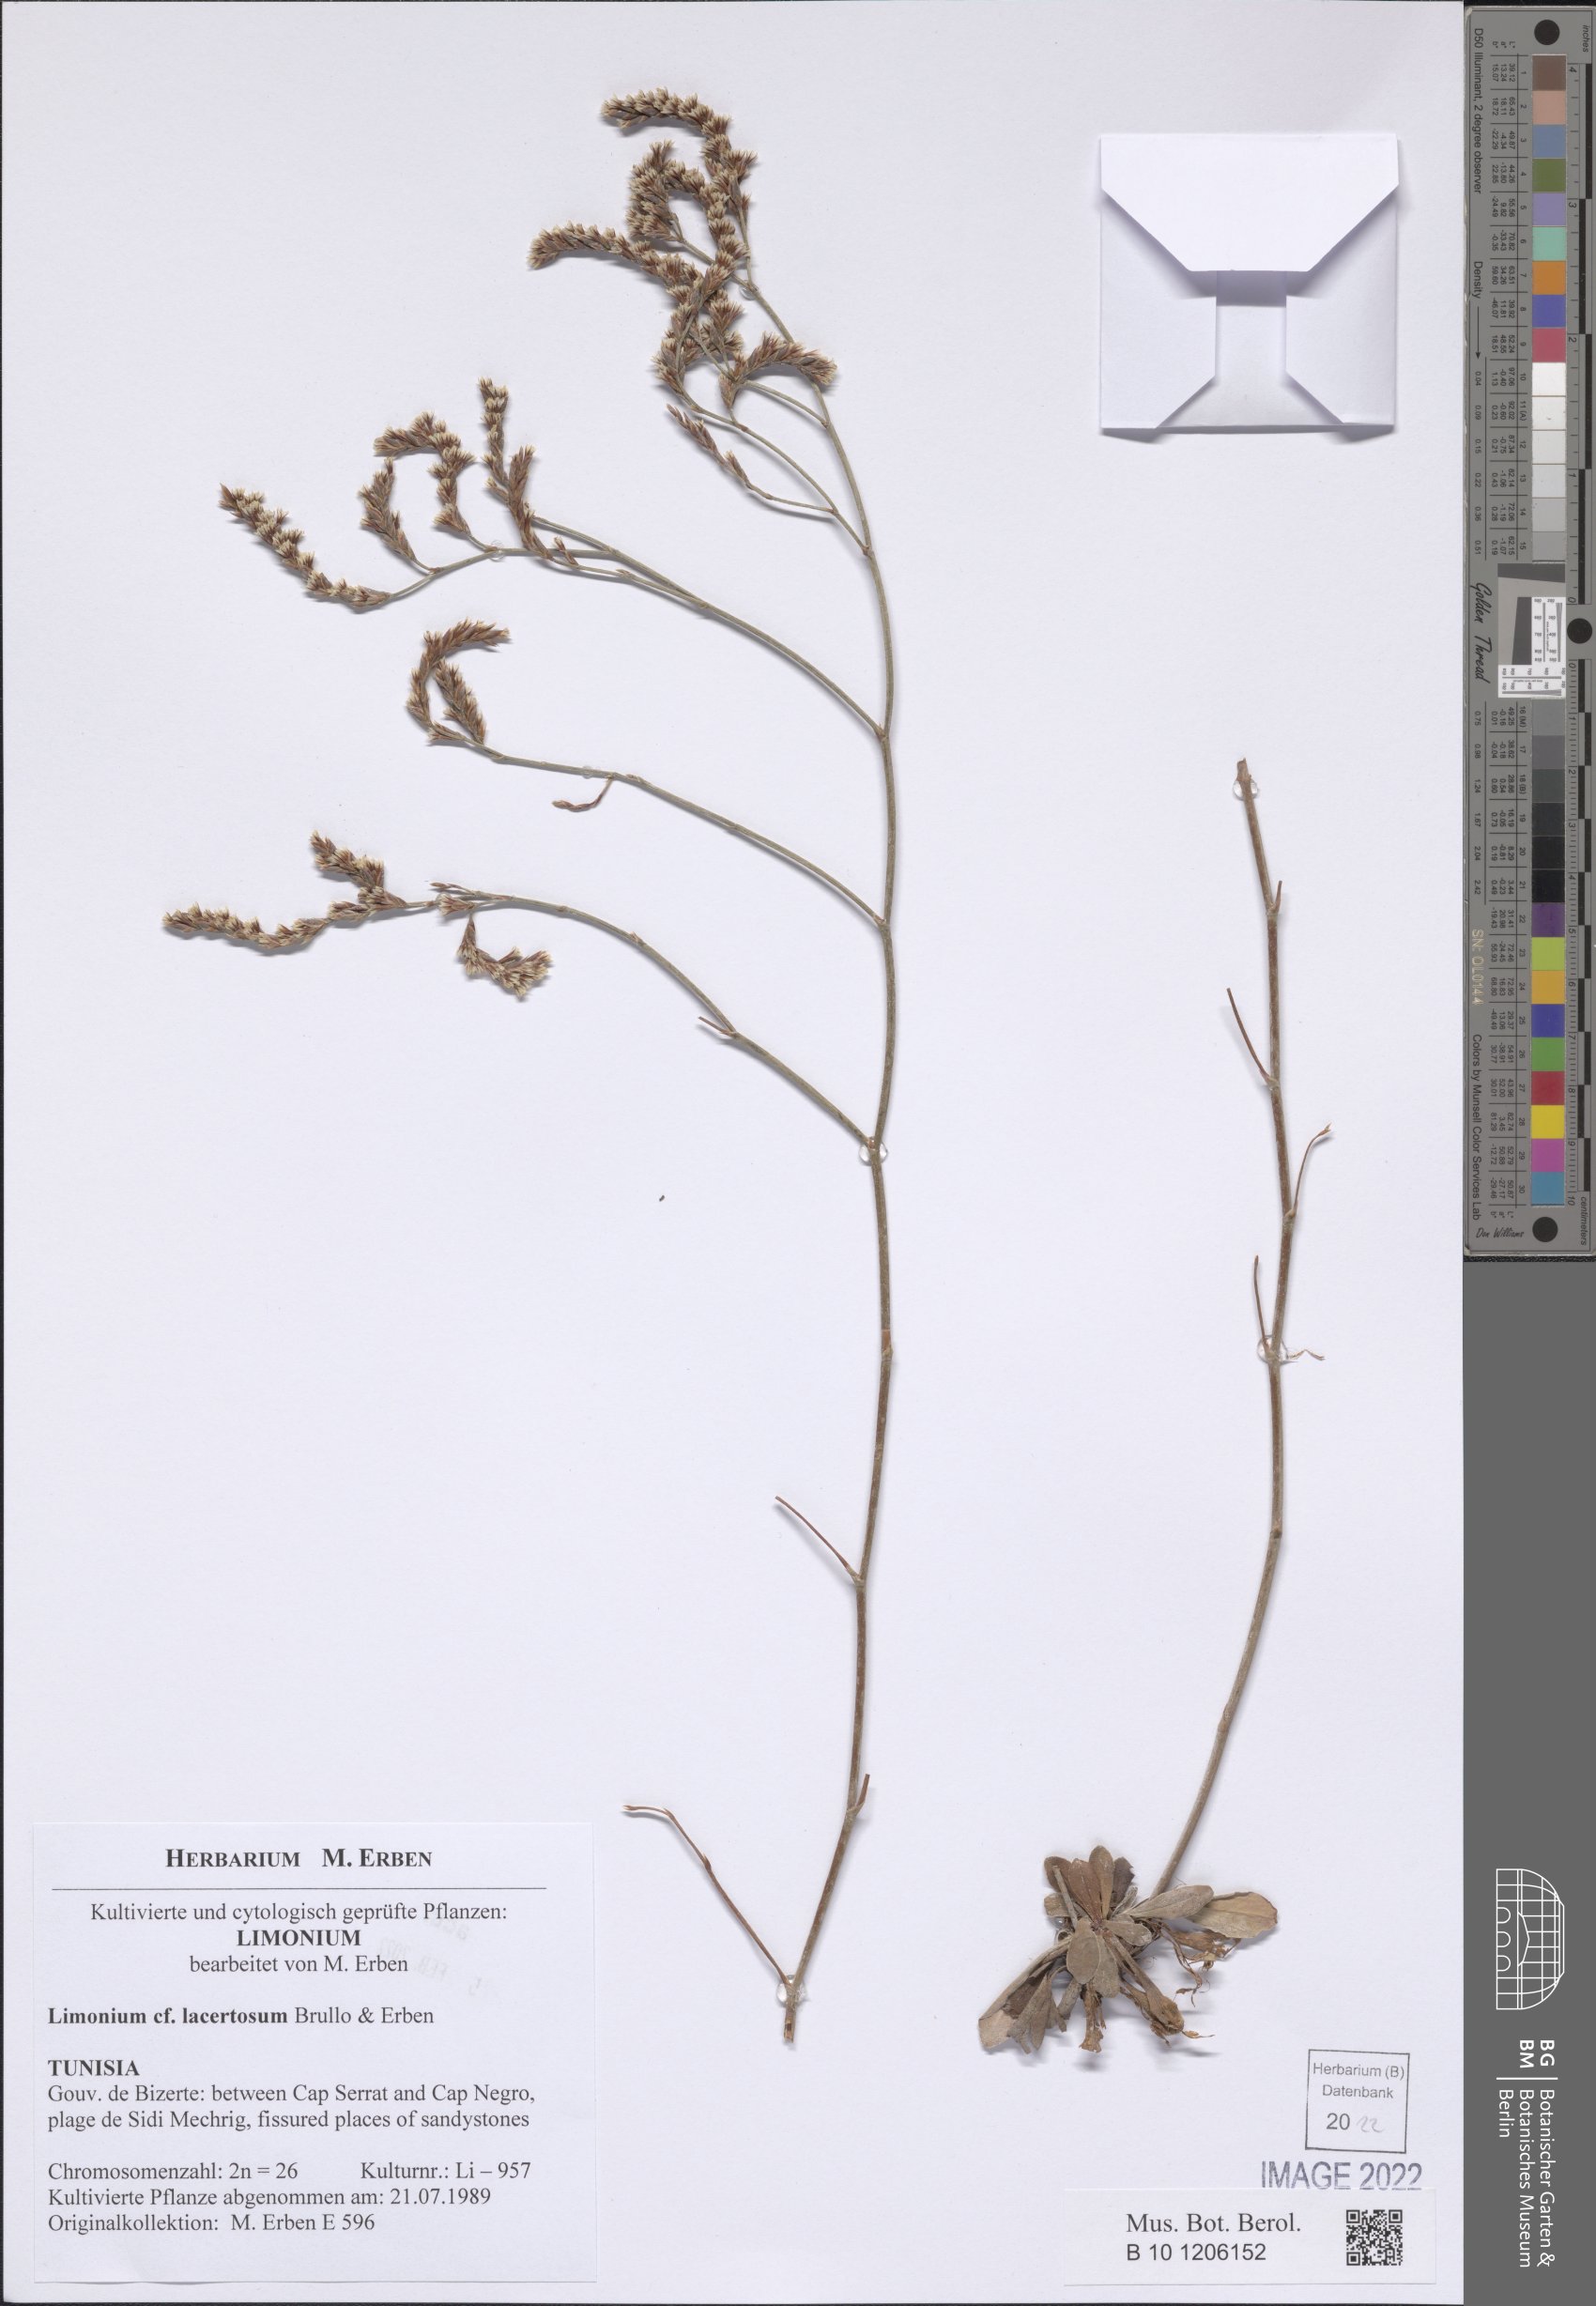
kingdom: Plantae
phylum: Tracheophyta
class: Magnoliopsida
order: Caryophyllales
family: Plumbaginaceae
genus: Limonium
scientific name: Limonium lacertosum
